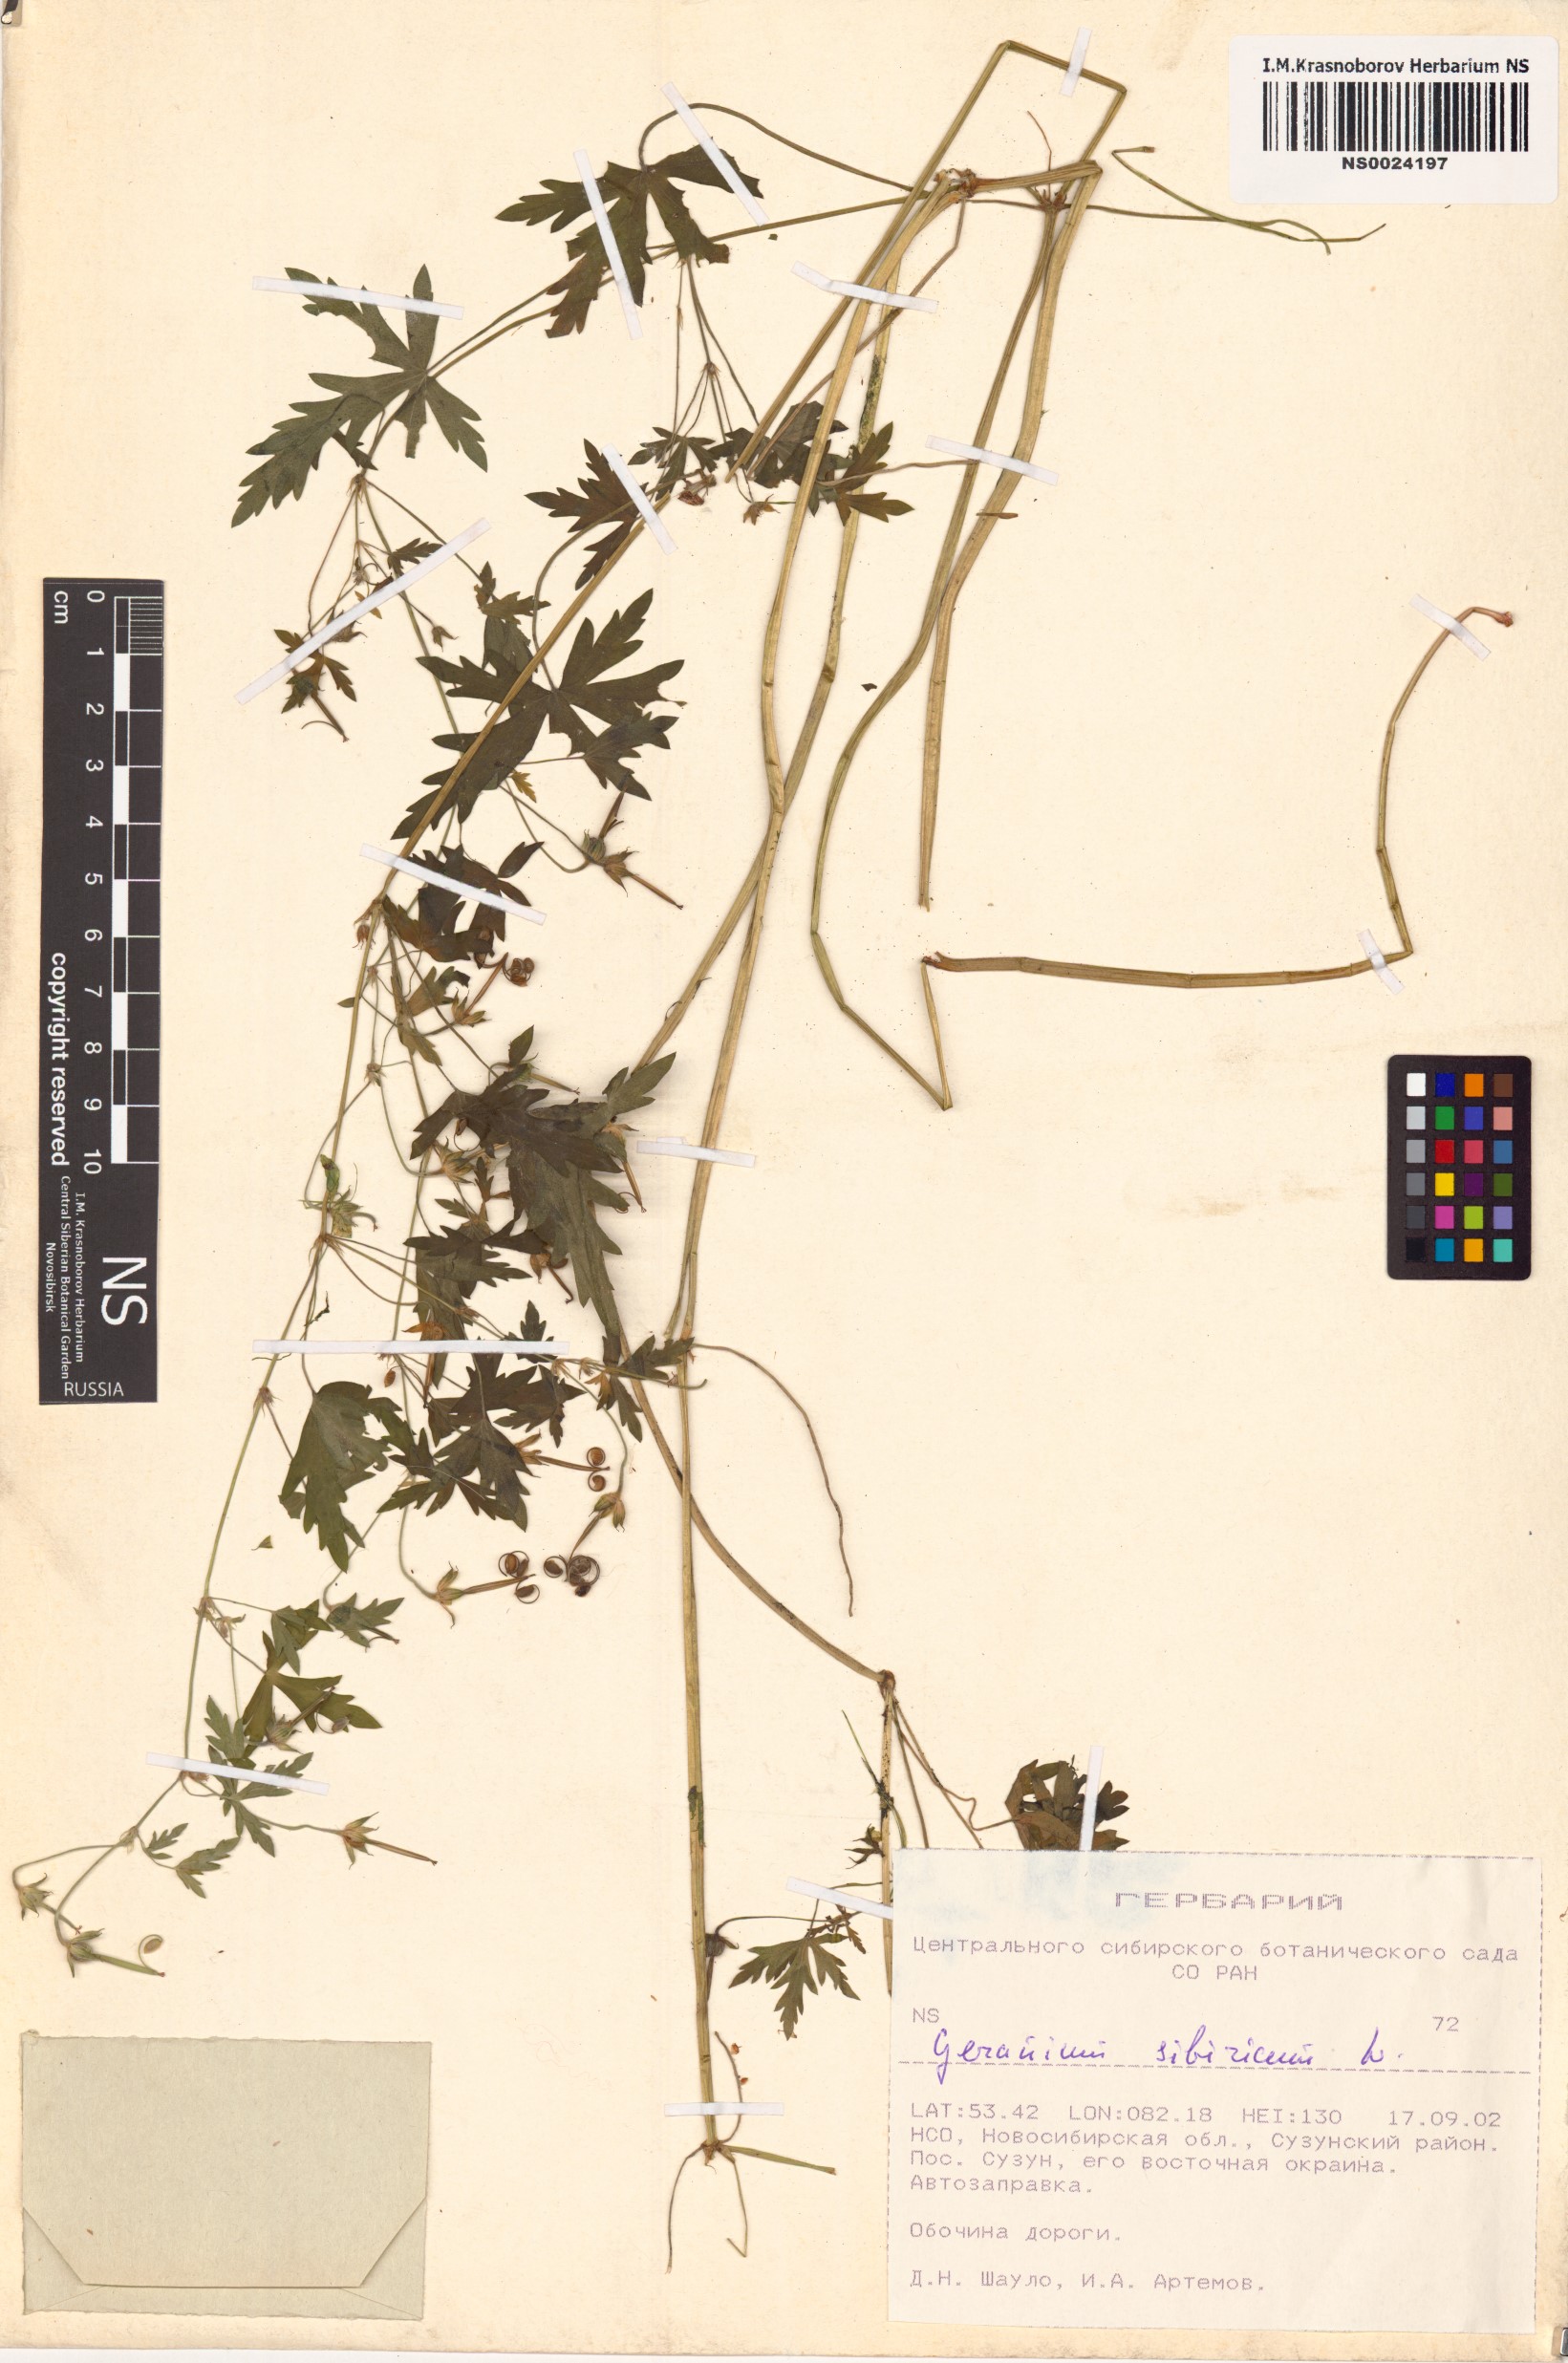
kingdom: Plantae
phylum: Tracheophyta
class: Magnoliopsida
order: Geraniales
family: Geraniaceae
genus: Geranium
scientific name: Geranium sibiricum
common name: Siberian crane's-bill
